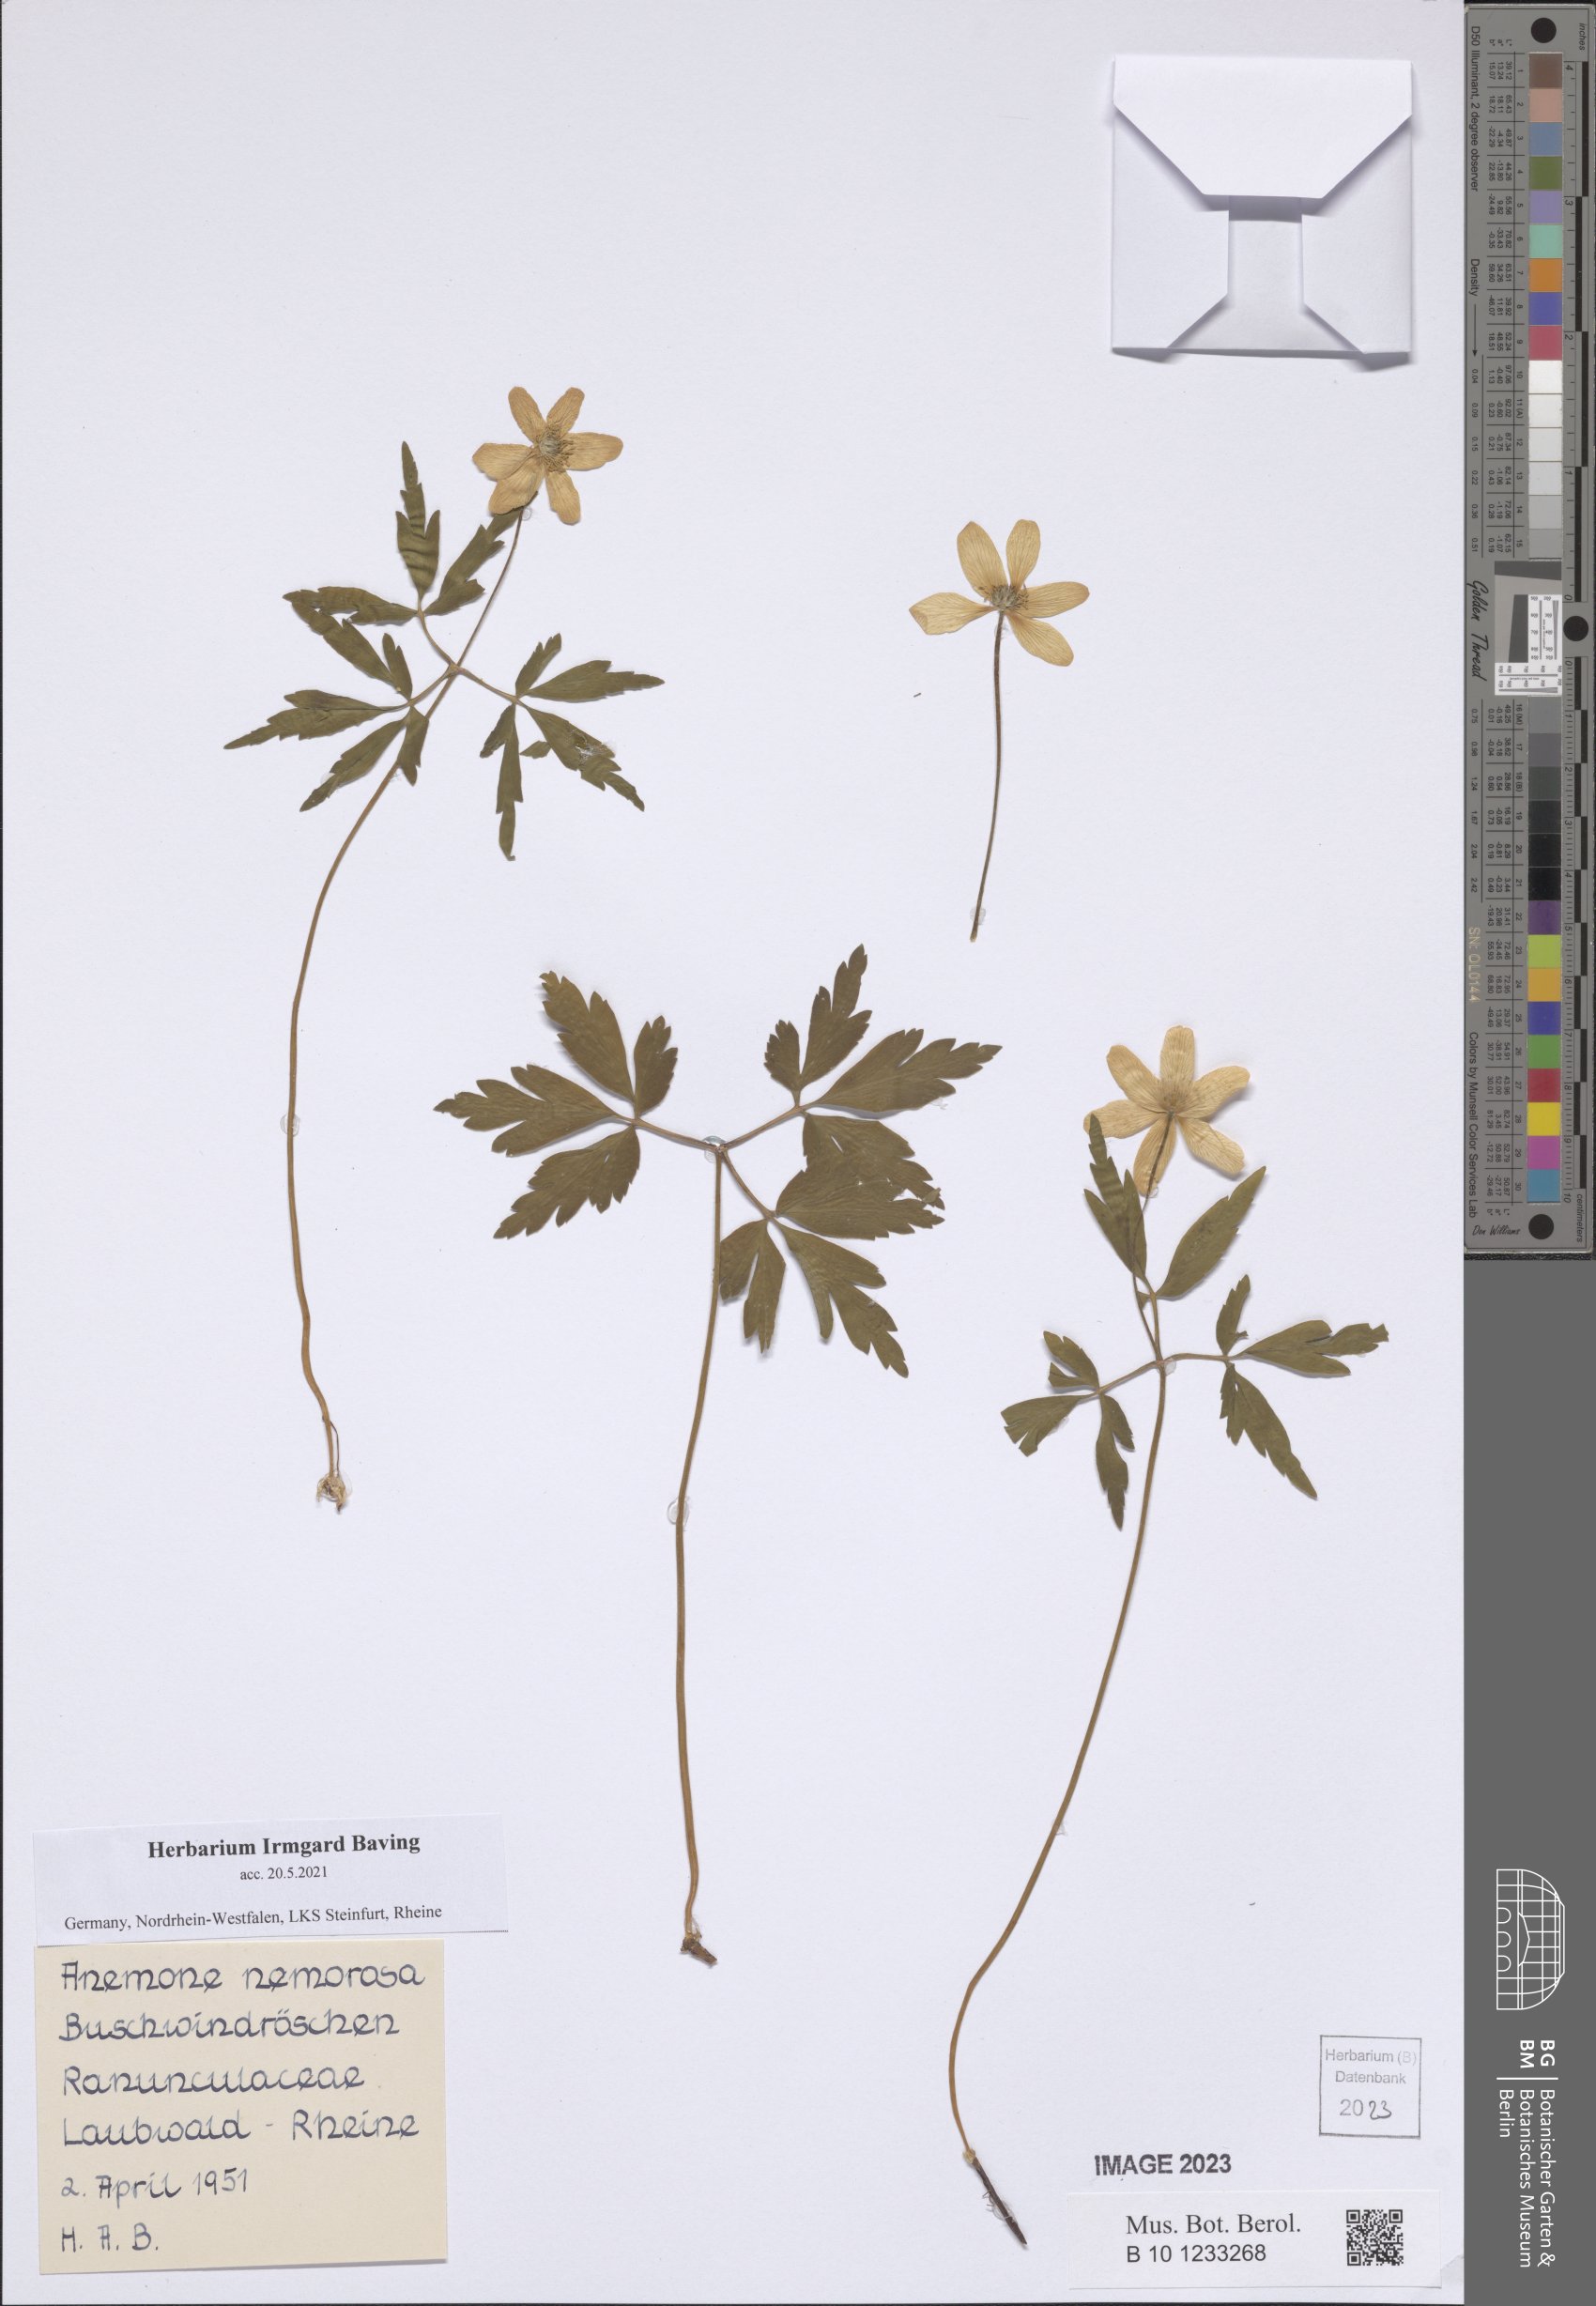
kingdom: Plantae
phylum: Tracheophyta
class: Magnoliopsida
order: Ranunculales
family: Ranunculaceae
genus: Anemone
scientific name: Anemone nemorosa
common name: Wood anemone
